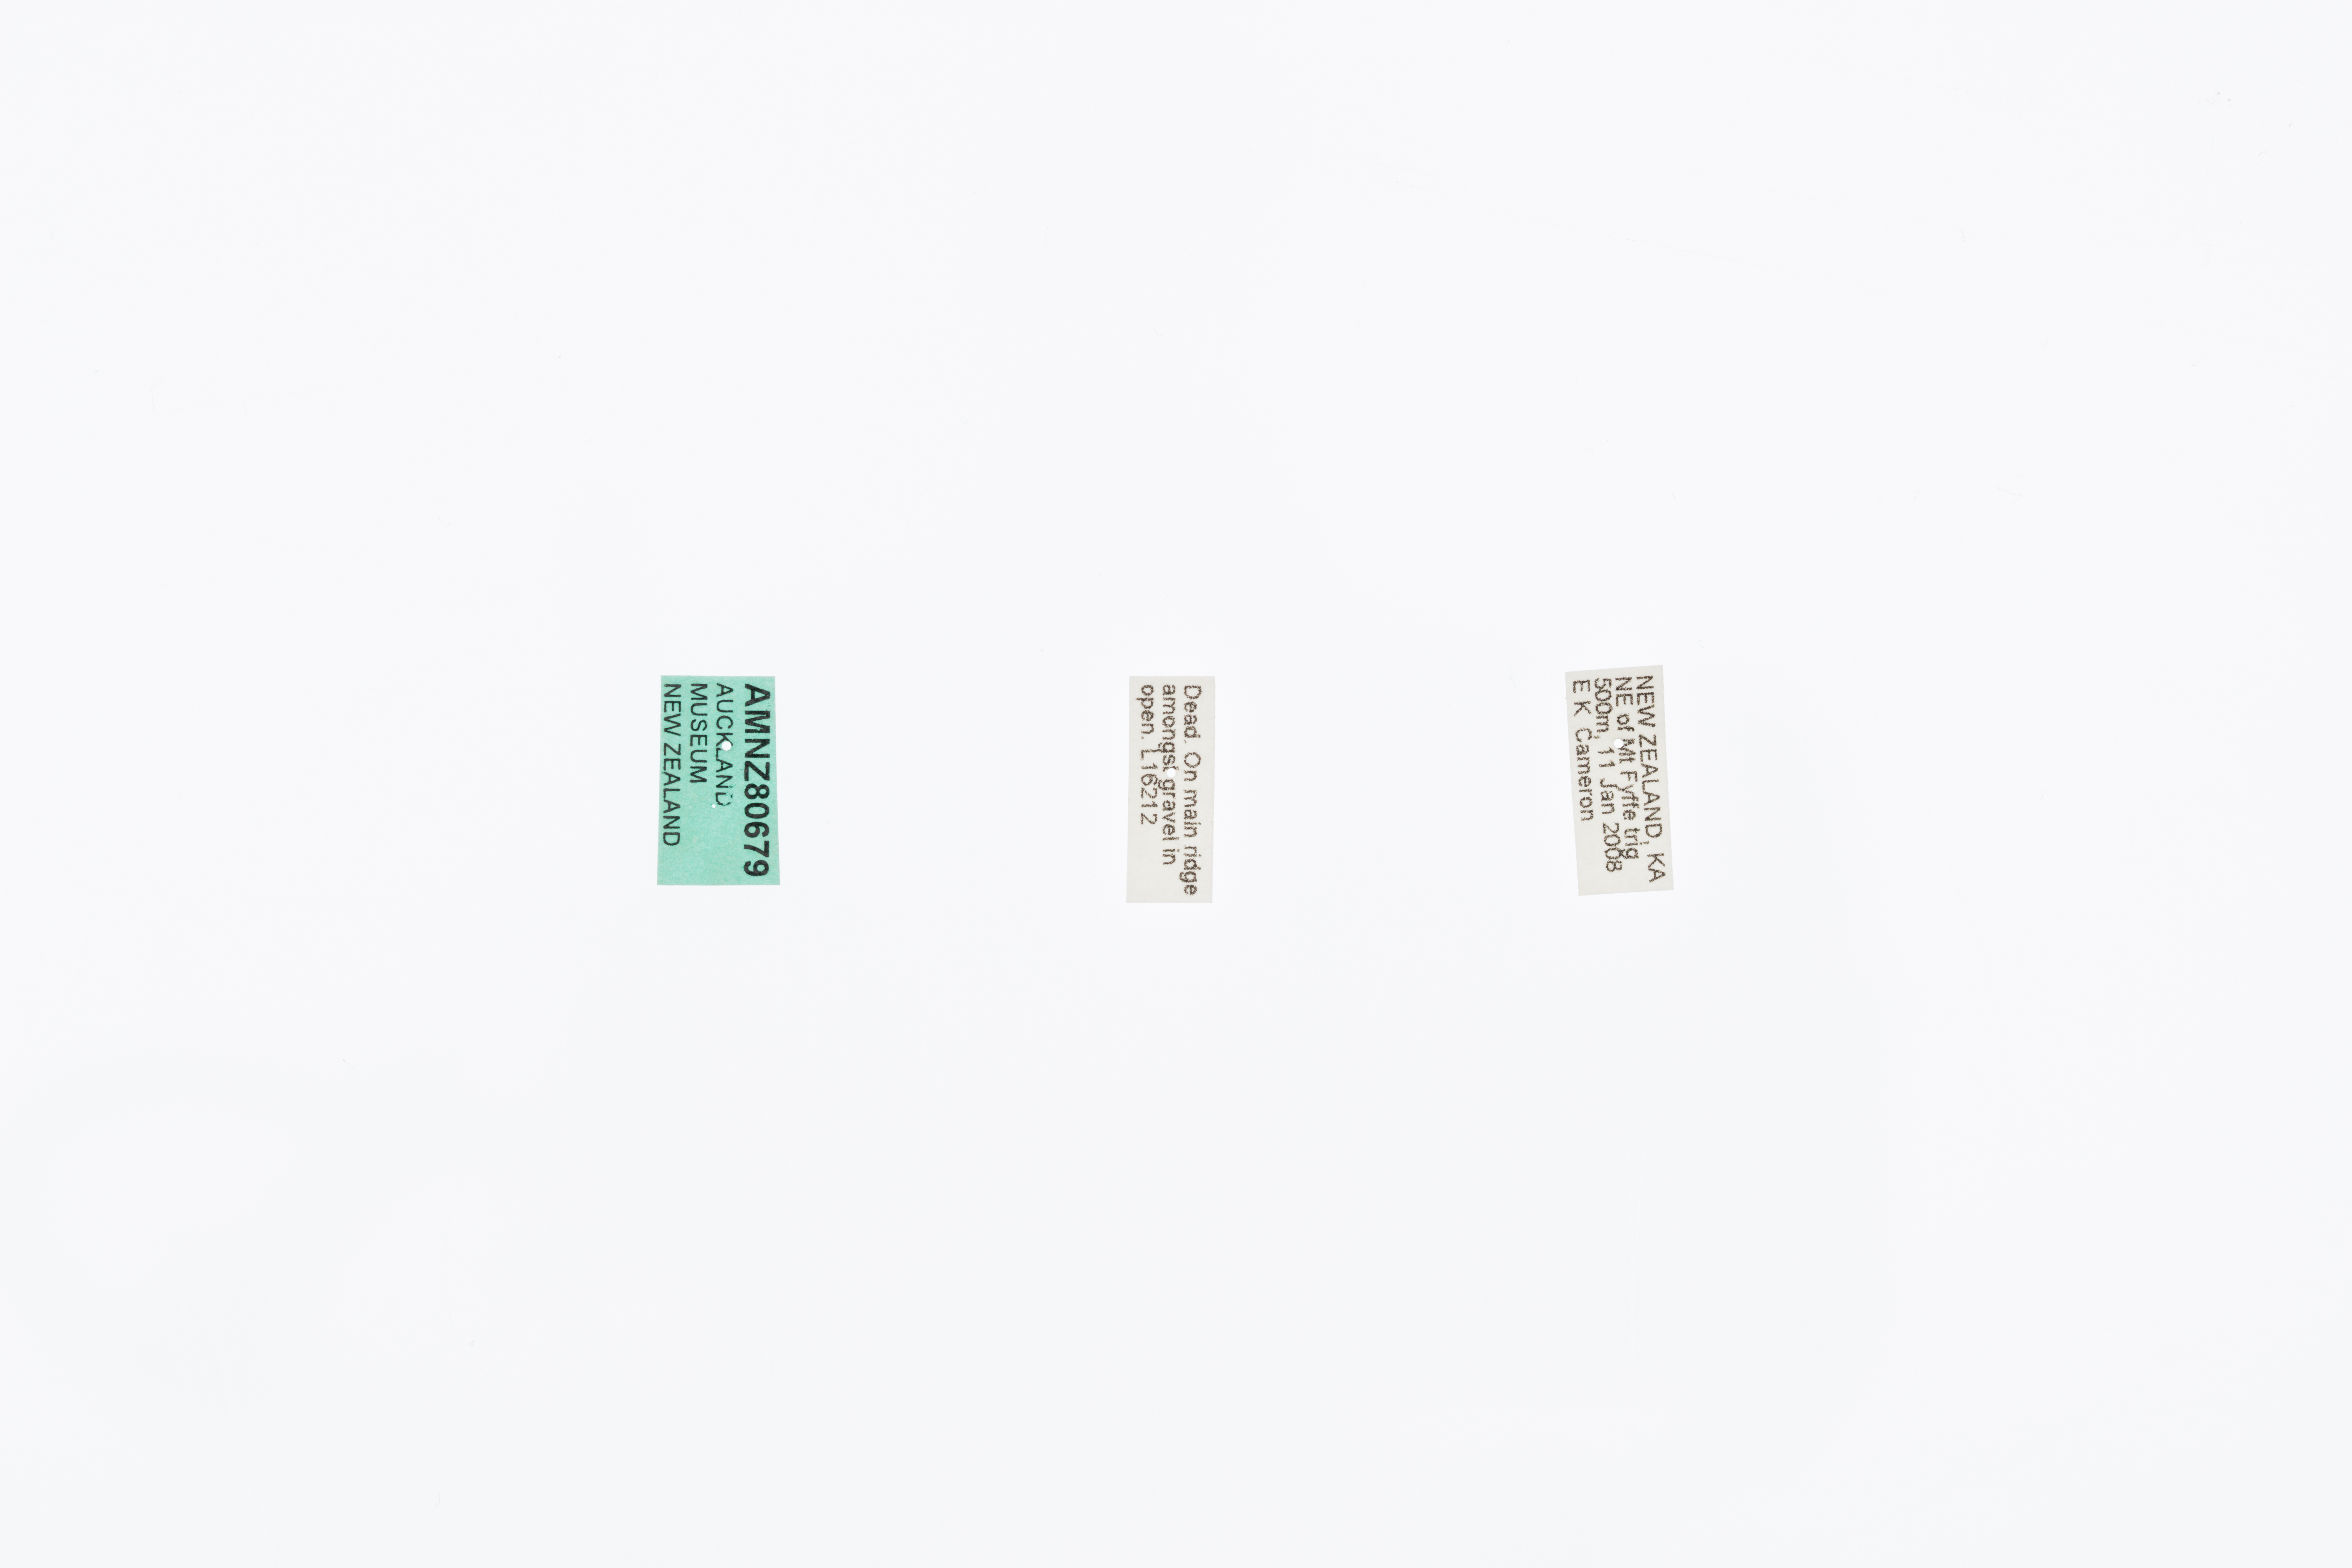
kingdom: Animalia
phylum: Arthropoda
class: Insecta
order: Orthoptera
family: Anostostomatidae
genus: Deinacrida
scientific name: Deinacrida connectens
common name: Scree weta
